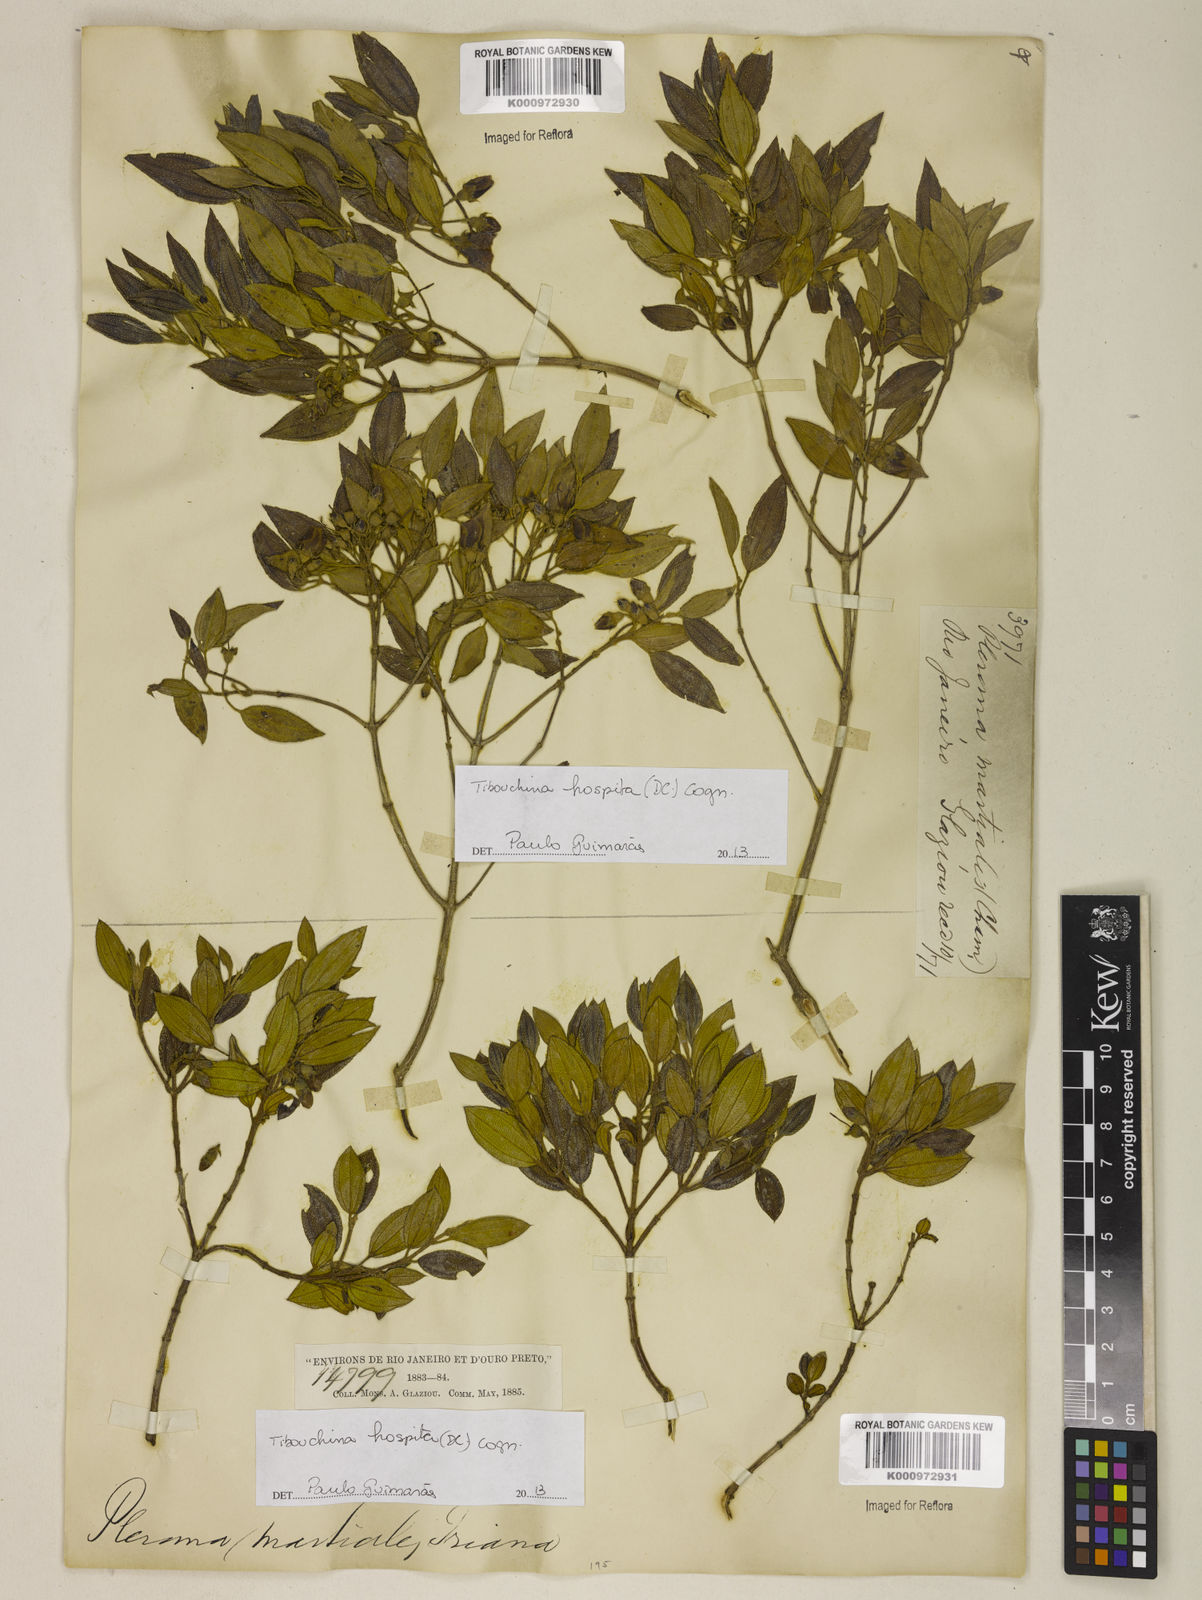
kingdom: Plantae
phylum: Tracheophyta
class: Magnoliopsida
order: Myrtales
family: Melastomataceae
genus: Pleroma
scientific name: Pleroma hospitum
